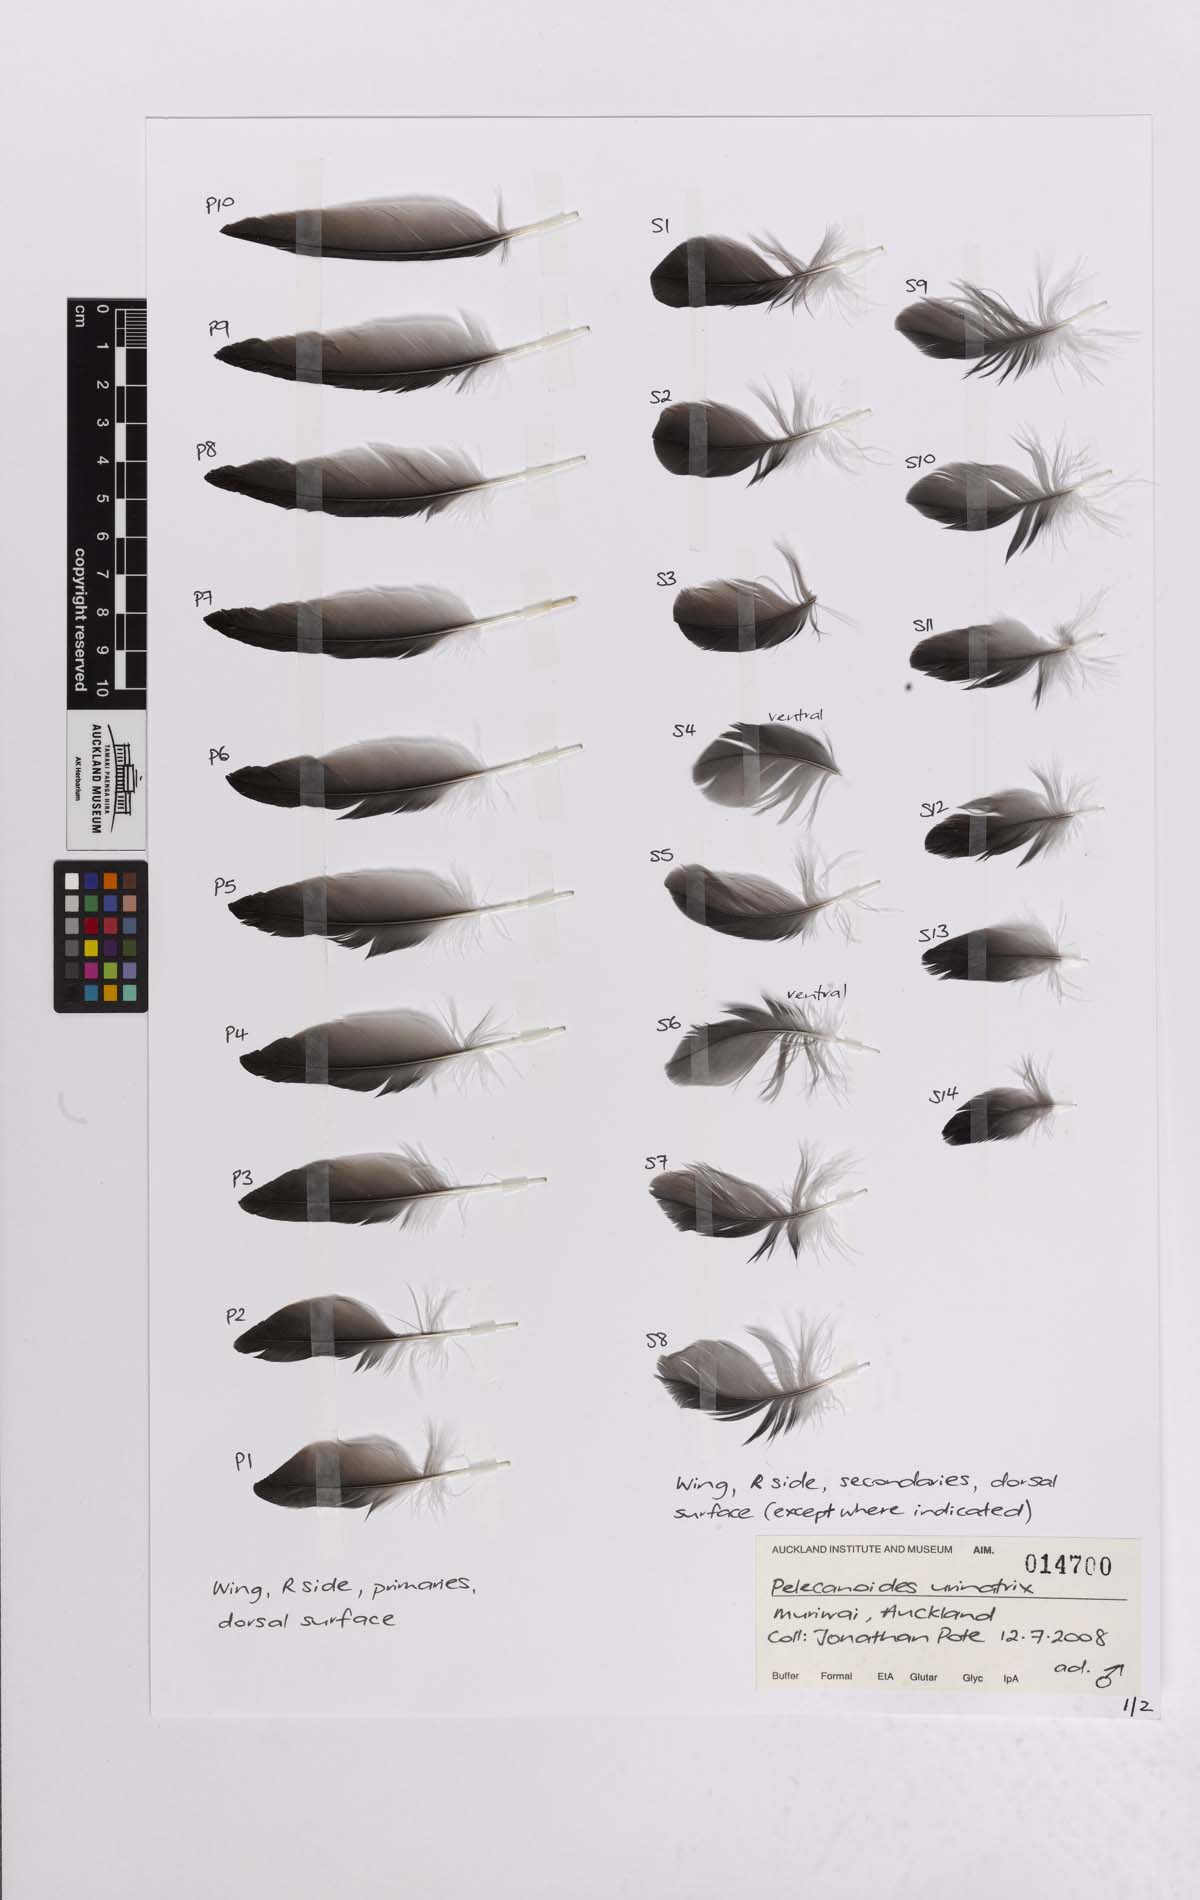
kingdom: Animalia
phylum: Chordata
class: Aves
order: Procellariiformes
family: Pelecanoididae
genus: Pelecanoides
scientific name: Pelecanoides urinatrix
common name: Common diving-petrel
